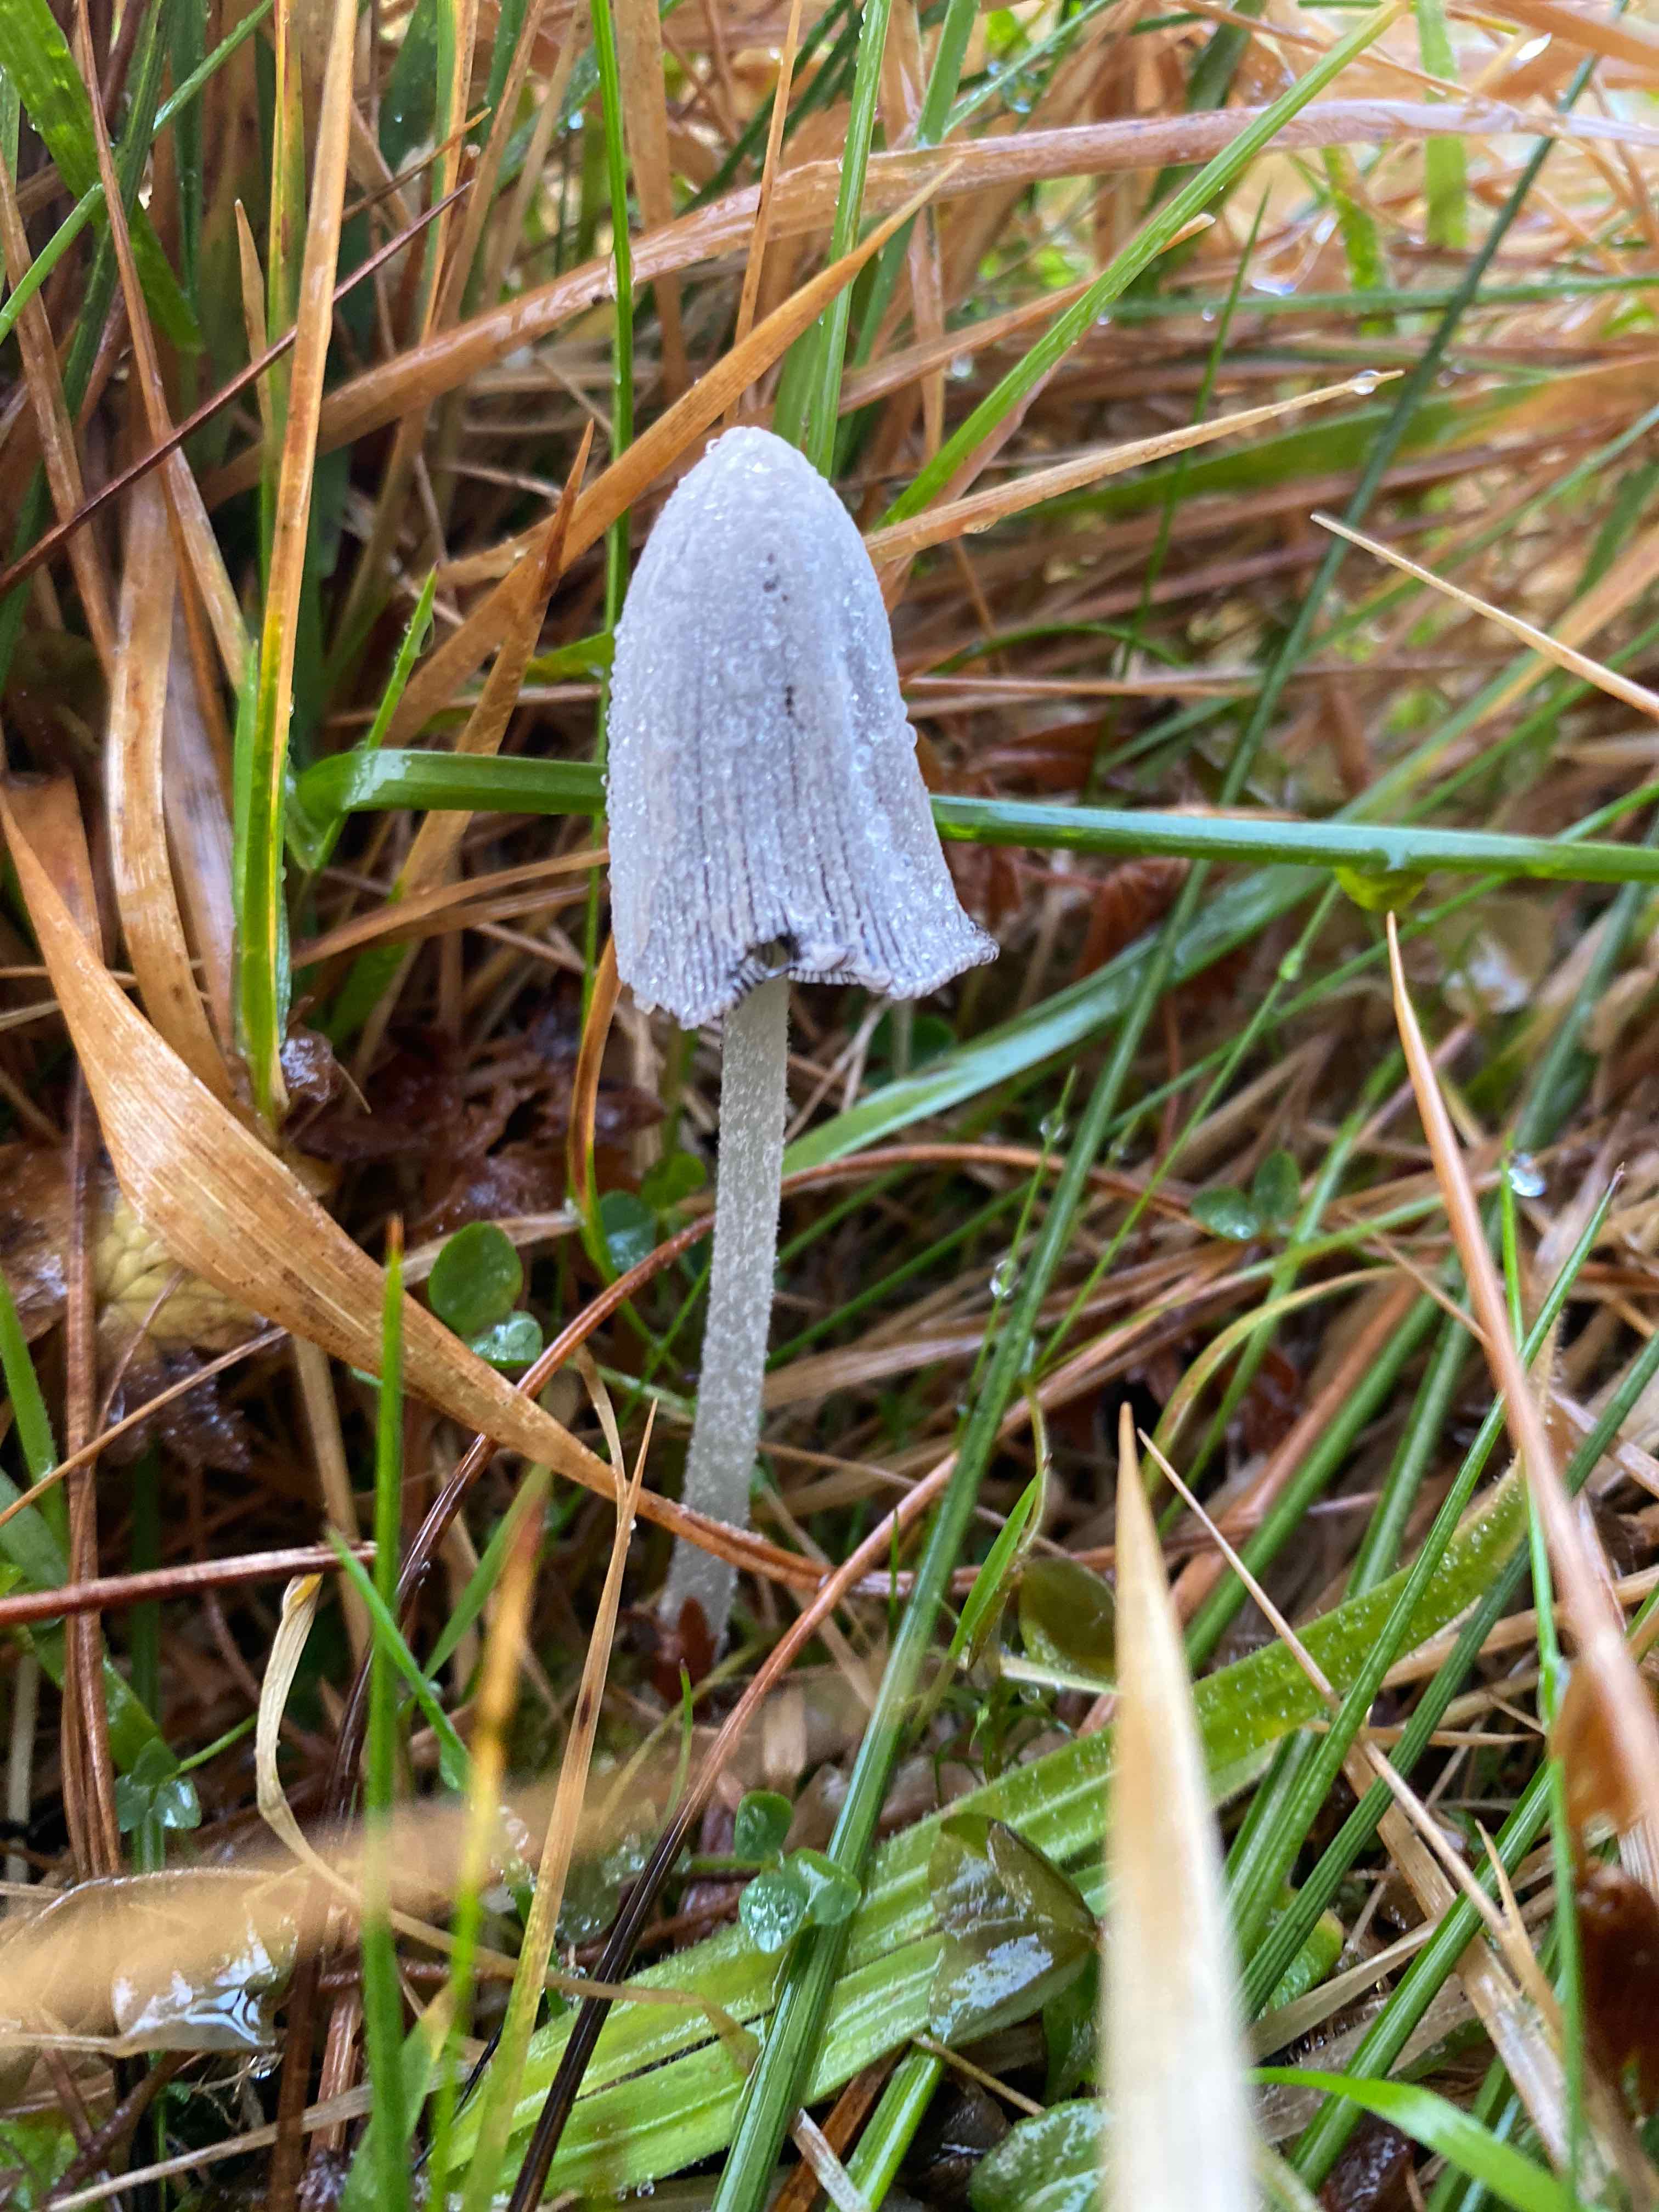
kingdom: Fungi
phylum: Basidiomycota
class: Agaricomycetes
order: Agaricales
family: Psathyrellaceae
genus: Coprinopsis
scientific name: Coprinopsis nivea
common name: snehvid blækhat
